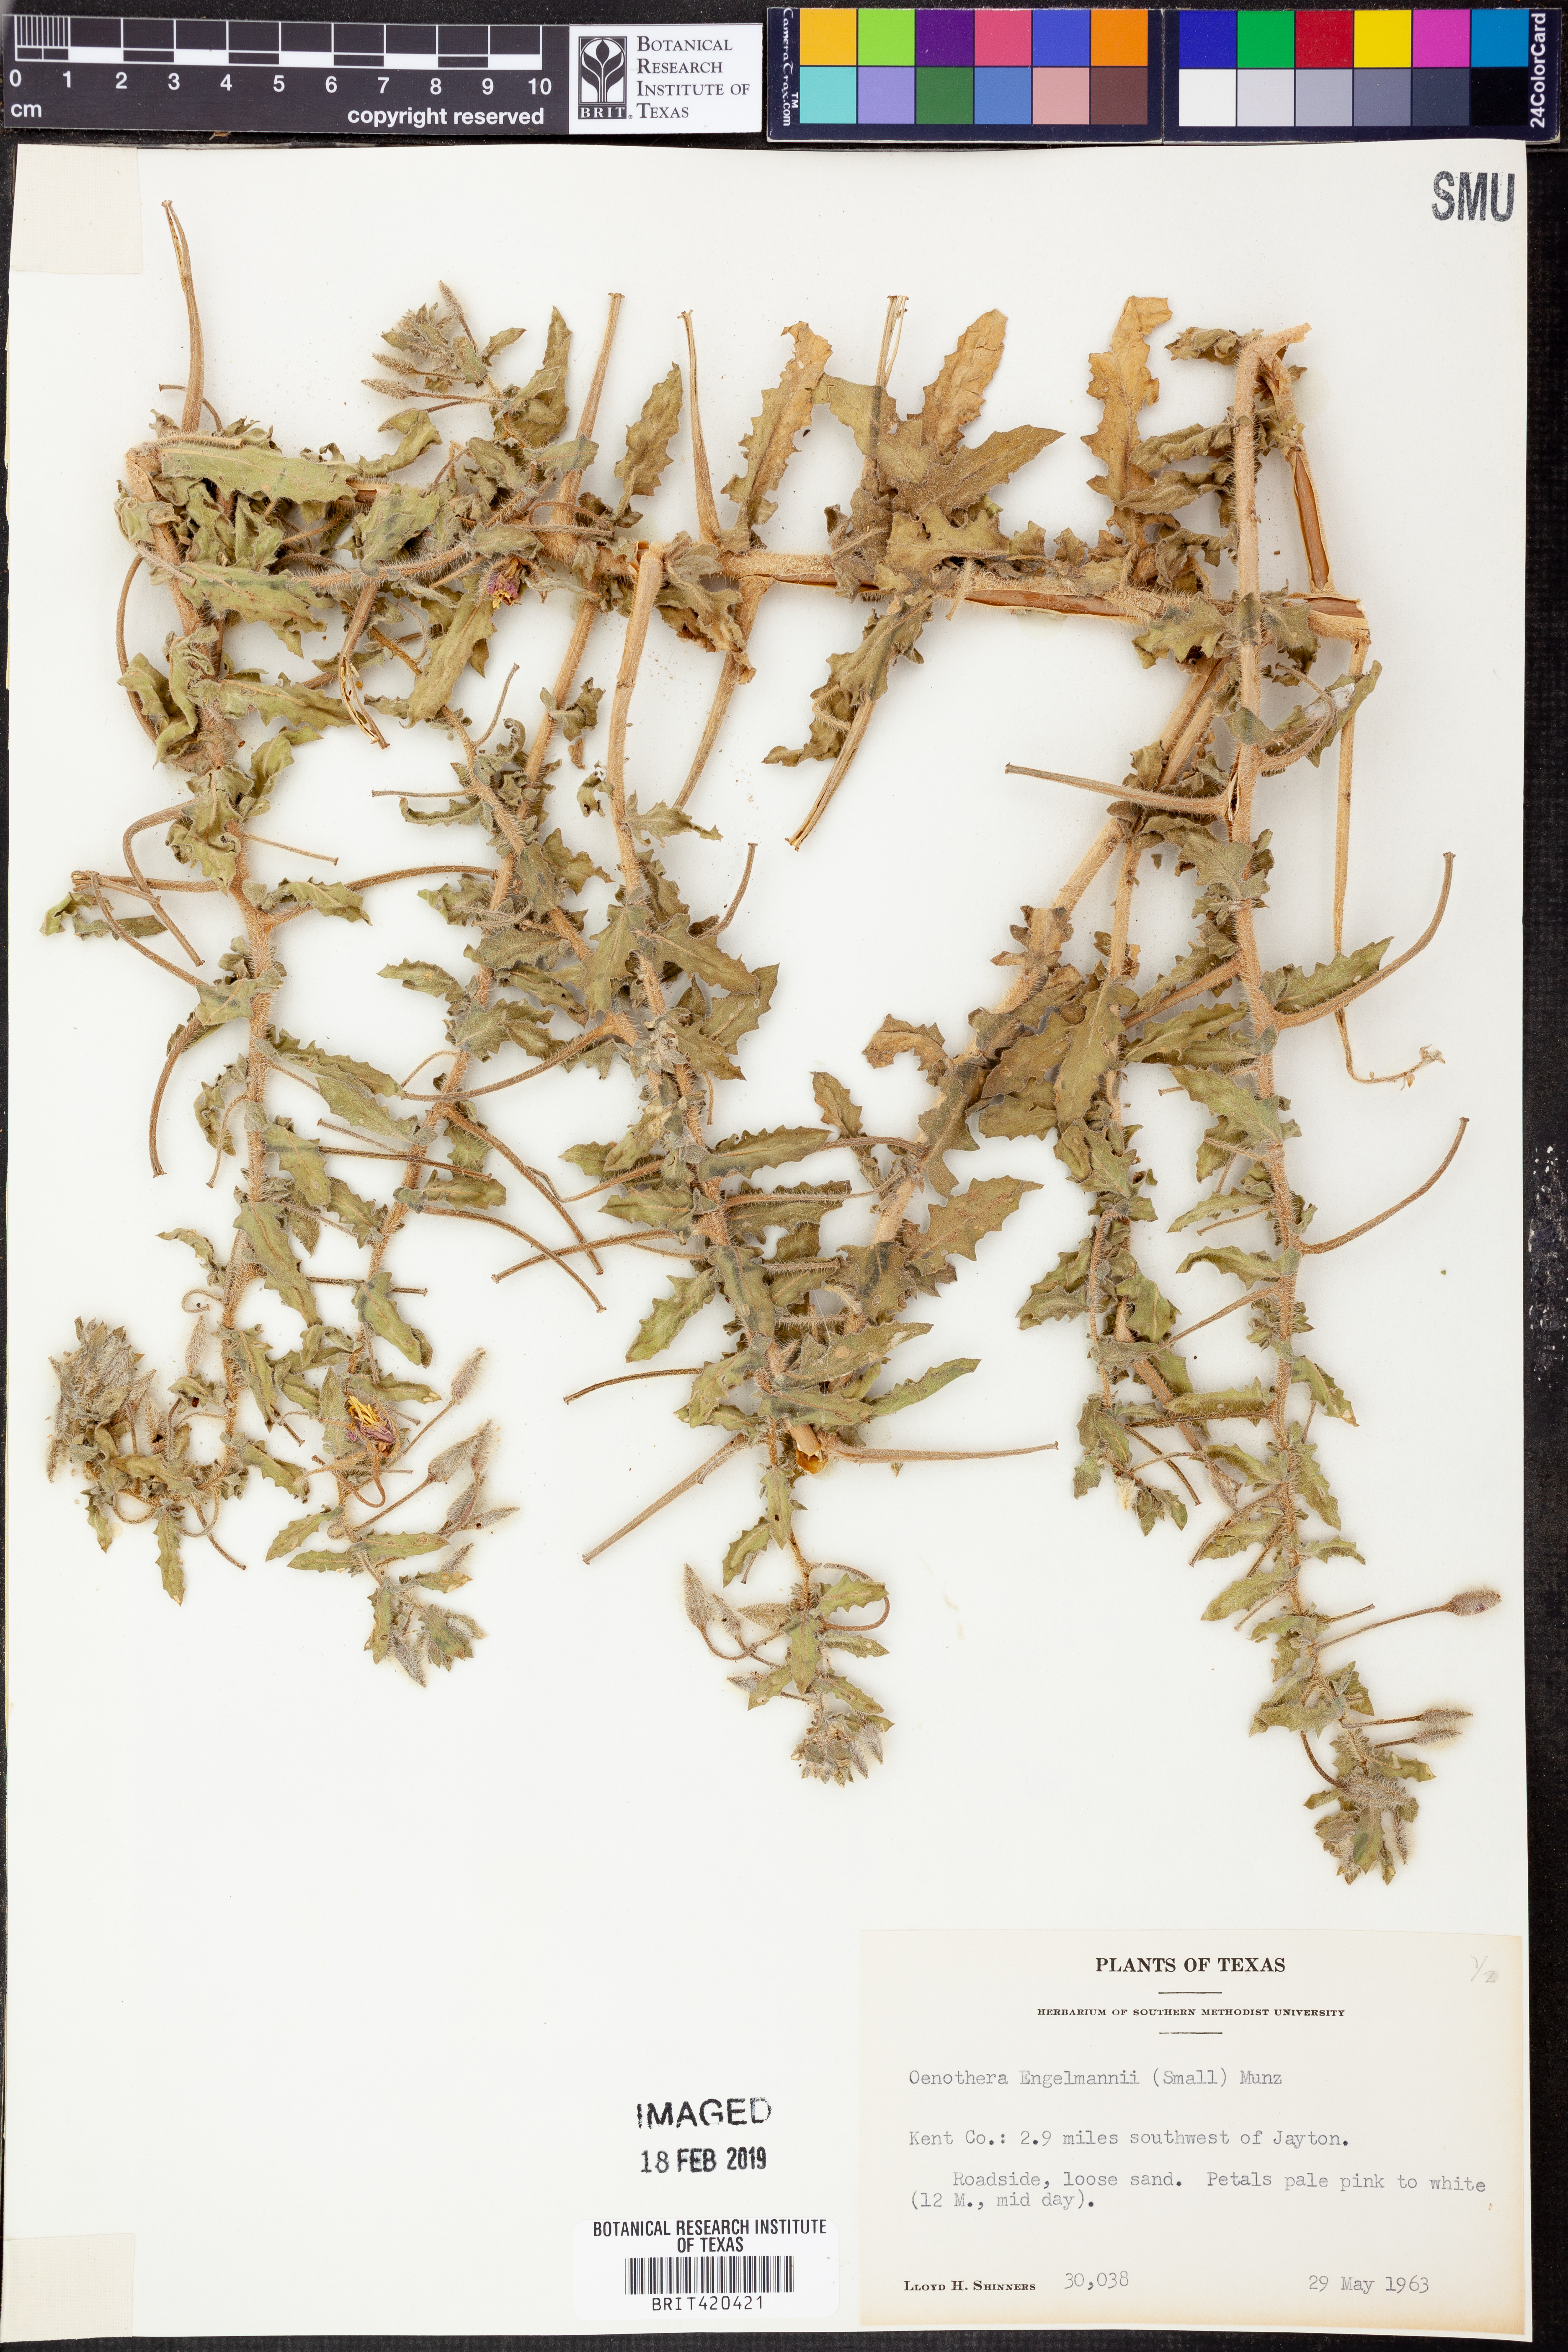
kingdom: Plantae
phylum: Tracheophyta
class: Magnoliopsida
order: Myrtales
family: Onagraceae
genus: Oenothera
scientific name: Oenothera engelmannii
